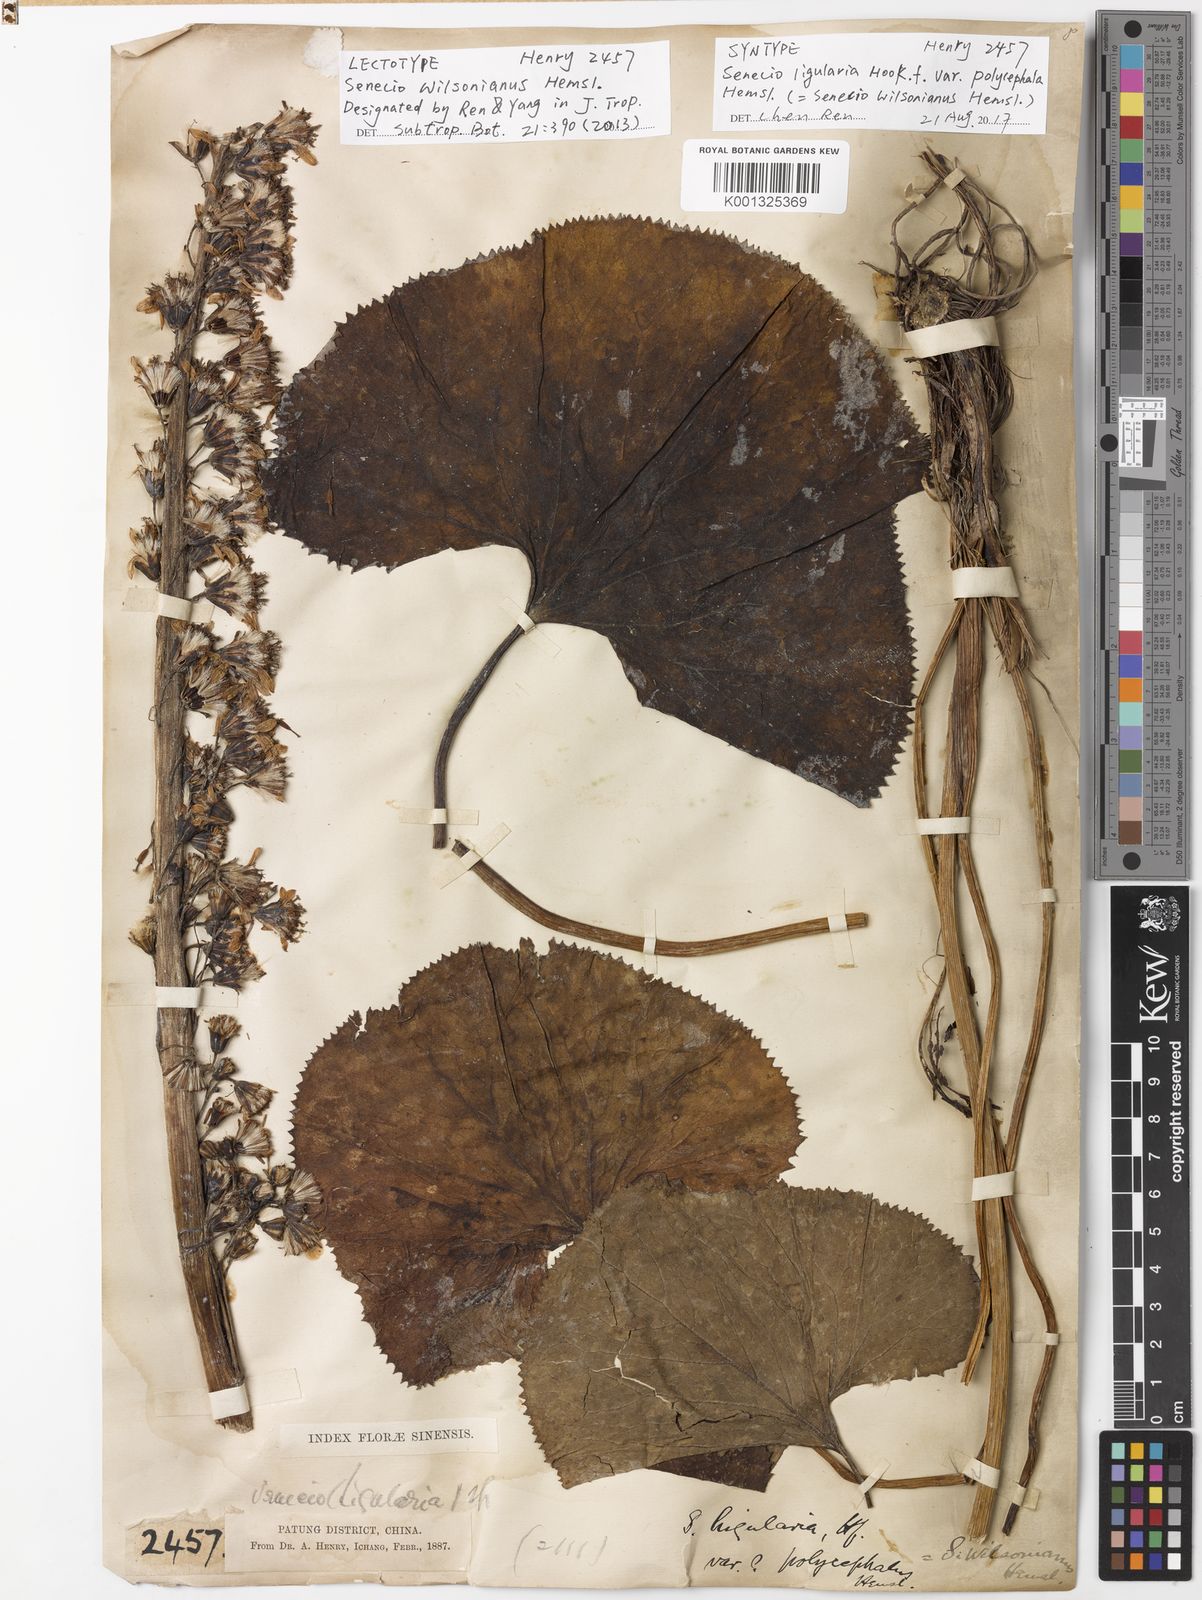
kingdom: Plantae
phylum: Tracheophyta
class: Magnoliopsida
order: Asterales
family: Asteraceae
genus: Ligularia
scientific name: Ligularia wilsoniana
